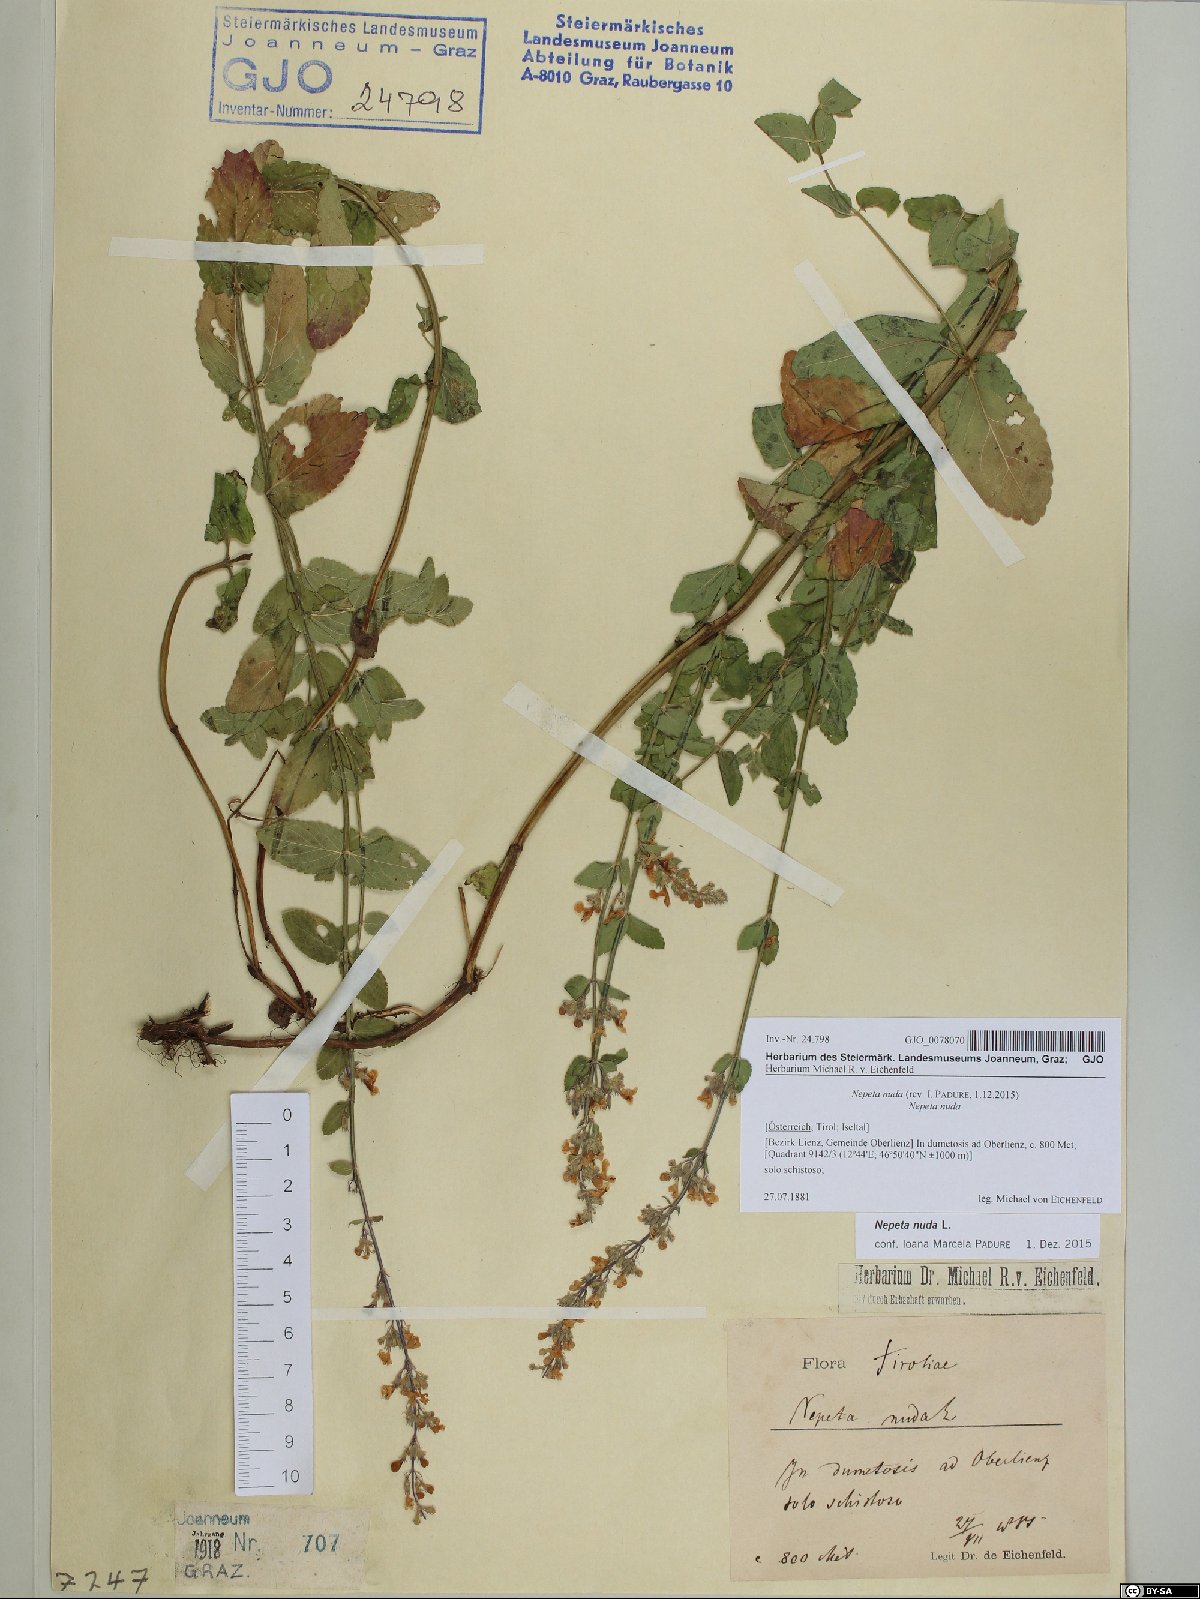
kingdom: Plantae
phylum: Tracheophyta
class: Magnoliopsida
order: Lamiales
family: Lamiaceae
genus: Nepeta
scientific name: Nepeta nuda
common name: Hairless catmint
